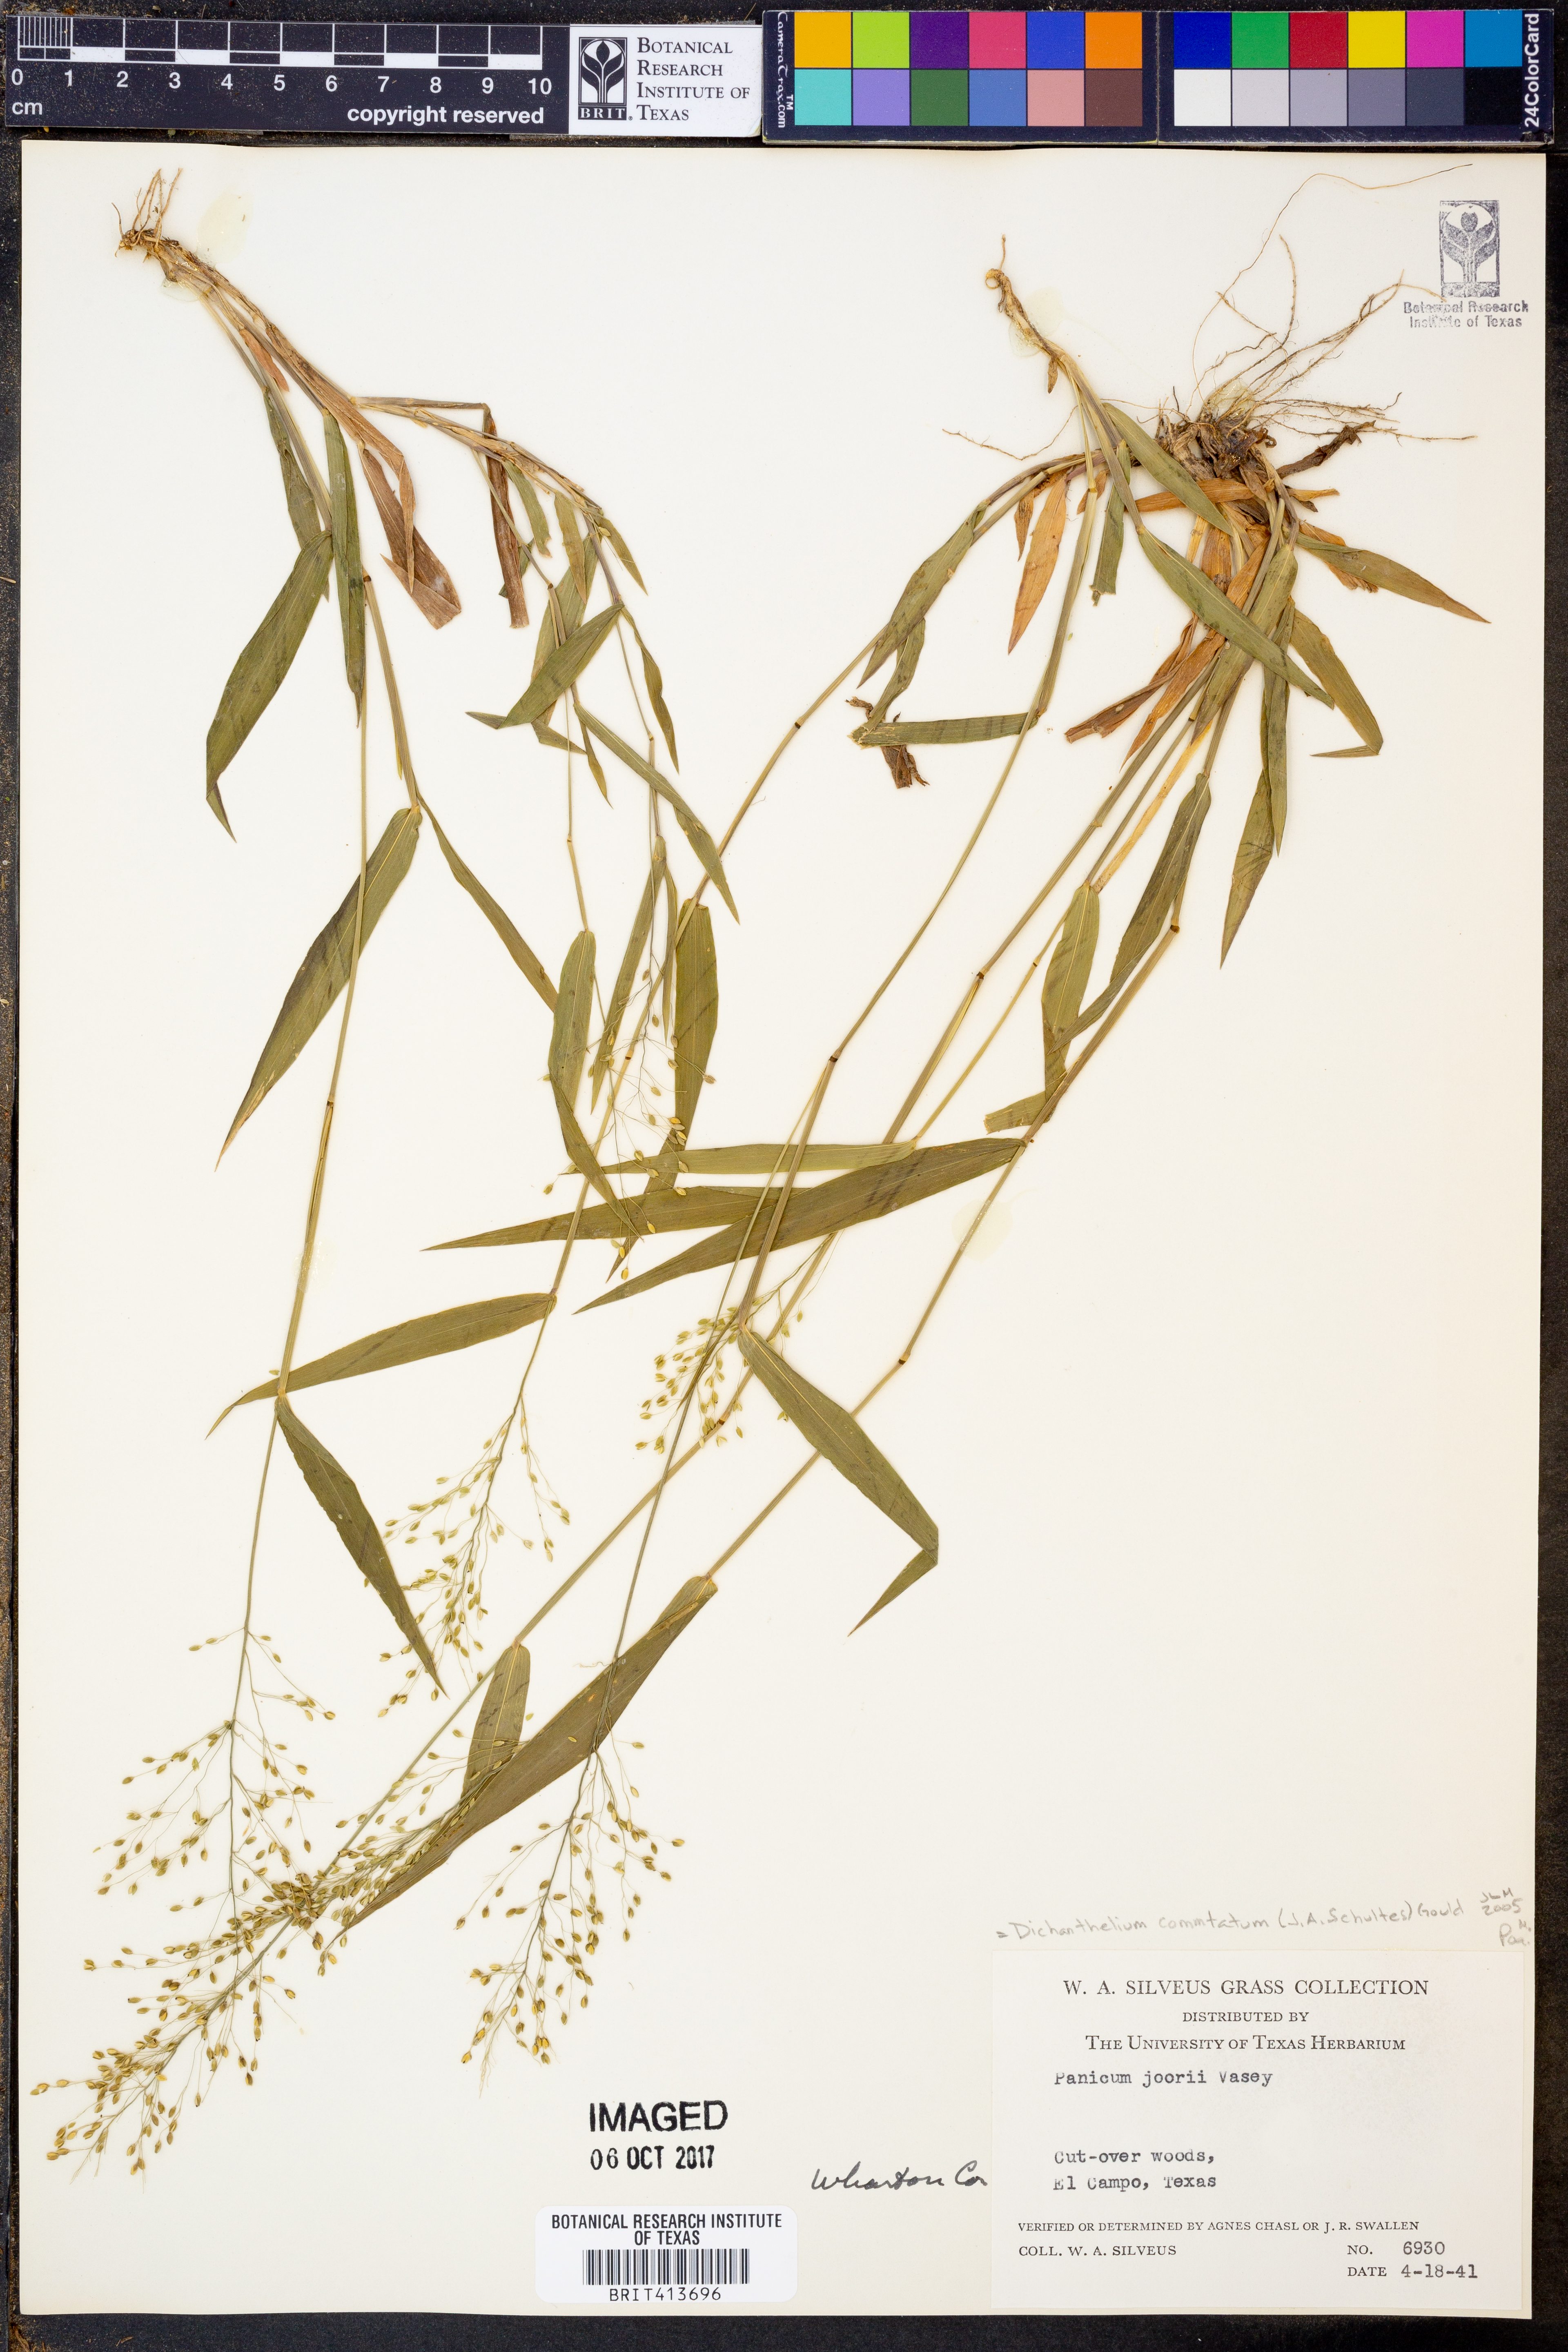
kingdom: Plantae
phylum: Tracheophyta
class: Liliopsida
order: Poales
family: Poaceae
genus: Dichanthelium
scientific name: Dichanthelium commutatum
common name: Variable witchgrass
